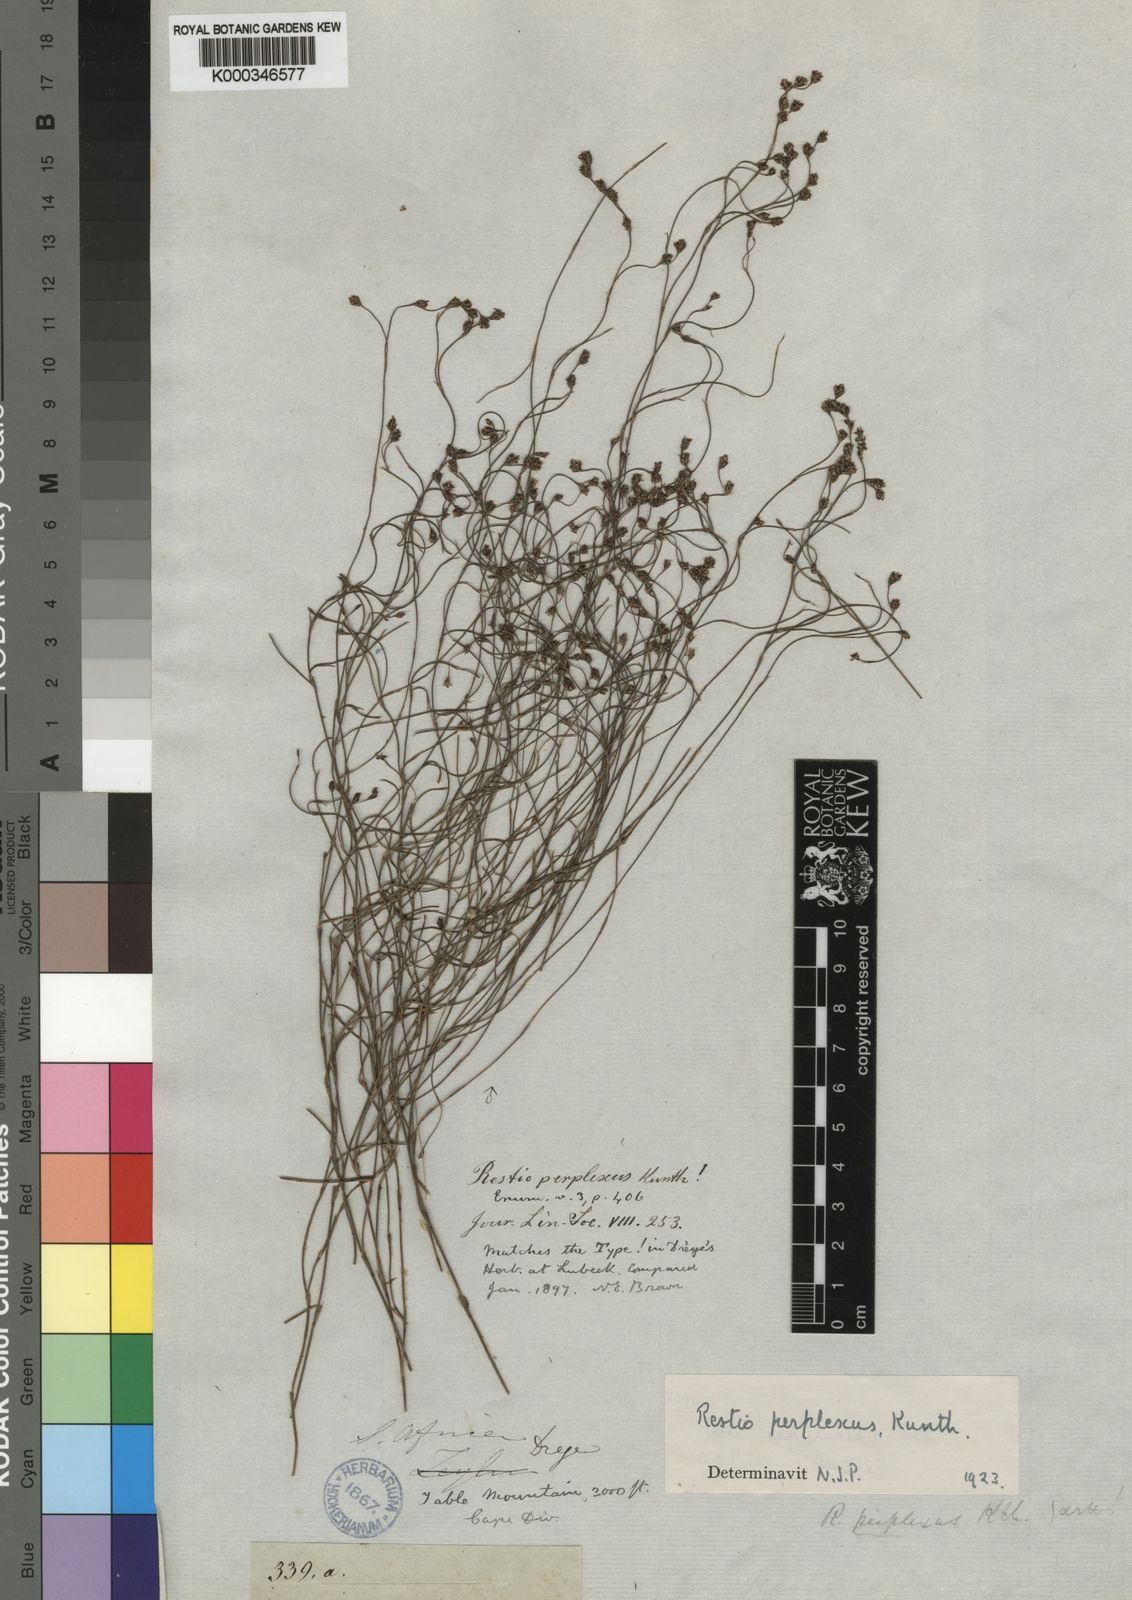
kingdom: Plantae
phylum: Tracheophyta
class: Liliopsida
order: Poales
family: Restionaceae
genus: Restio
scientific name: Restio perplexus
